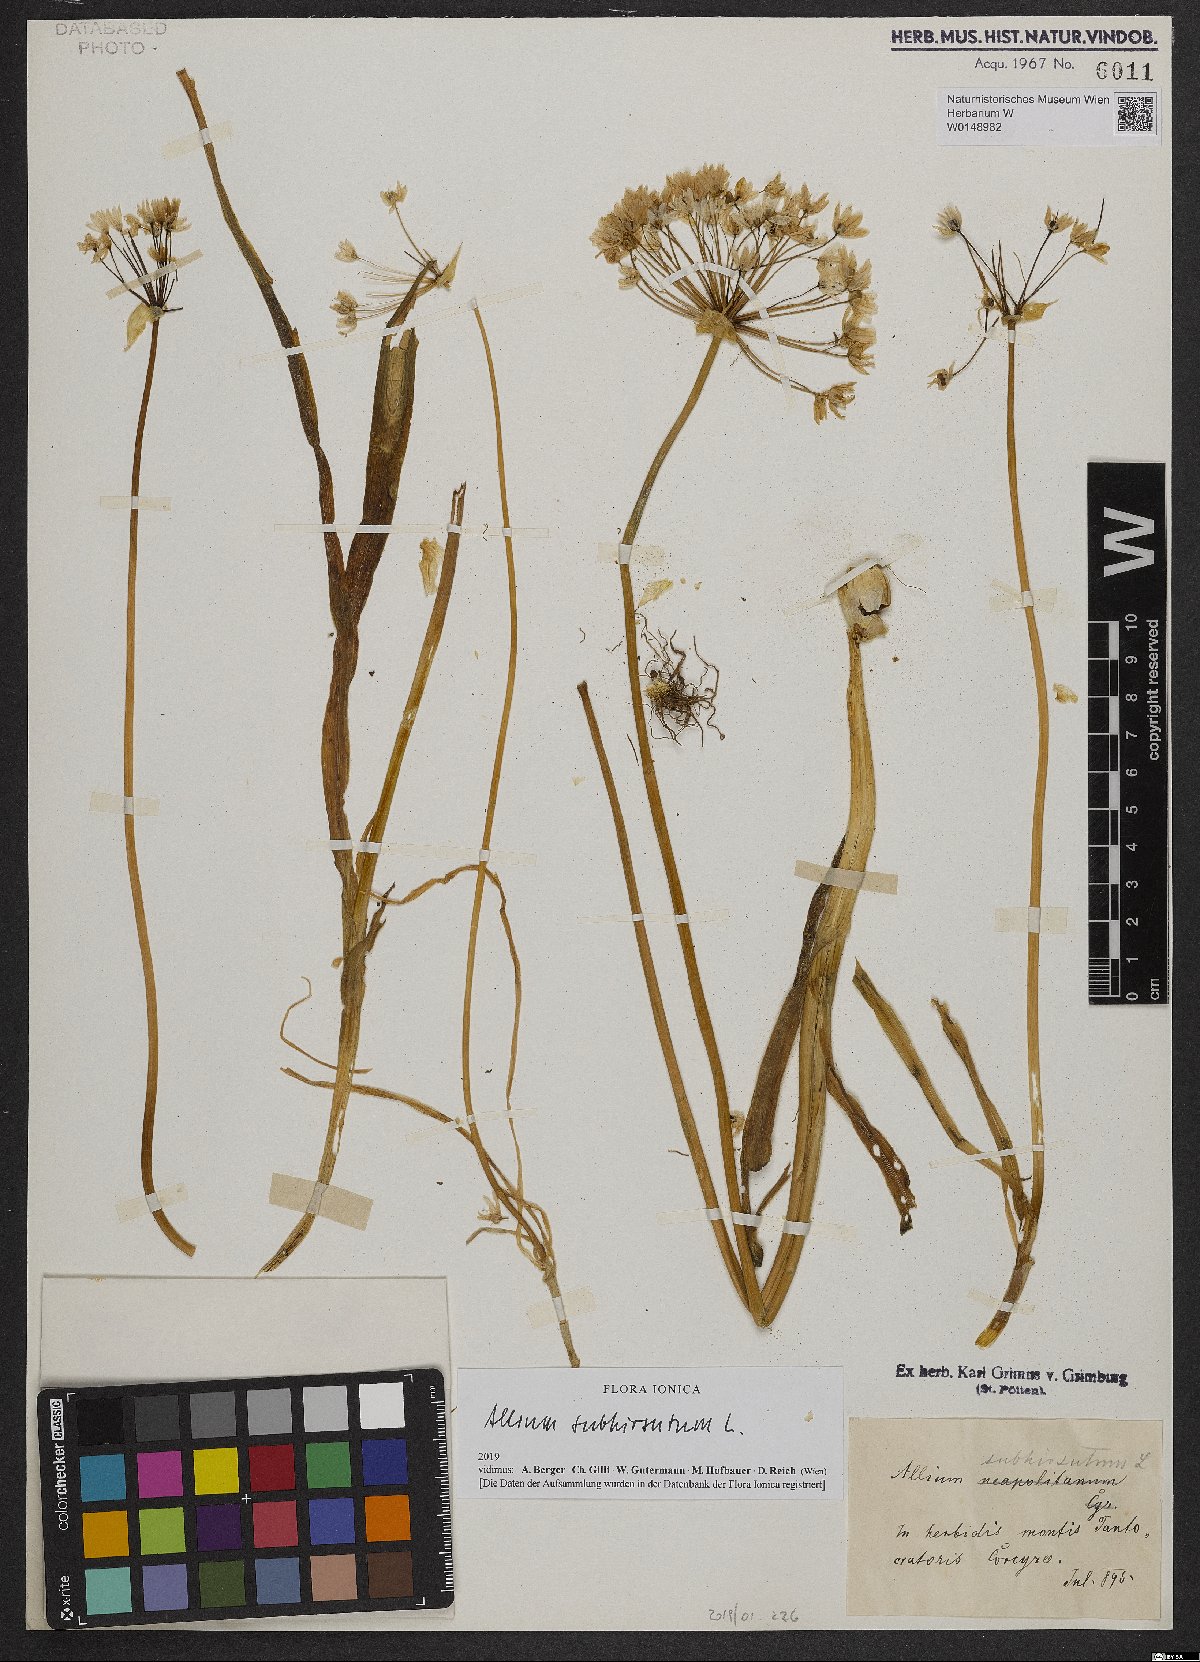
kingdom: Plantae
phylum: Tracheophyta
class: Liliopsida
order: Asparagales
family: Amaryllidaceae
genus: Allium
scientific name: Allium subhirsutum
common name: Hairy garlic
